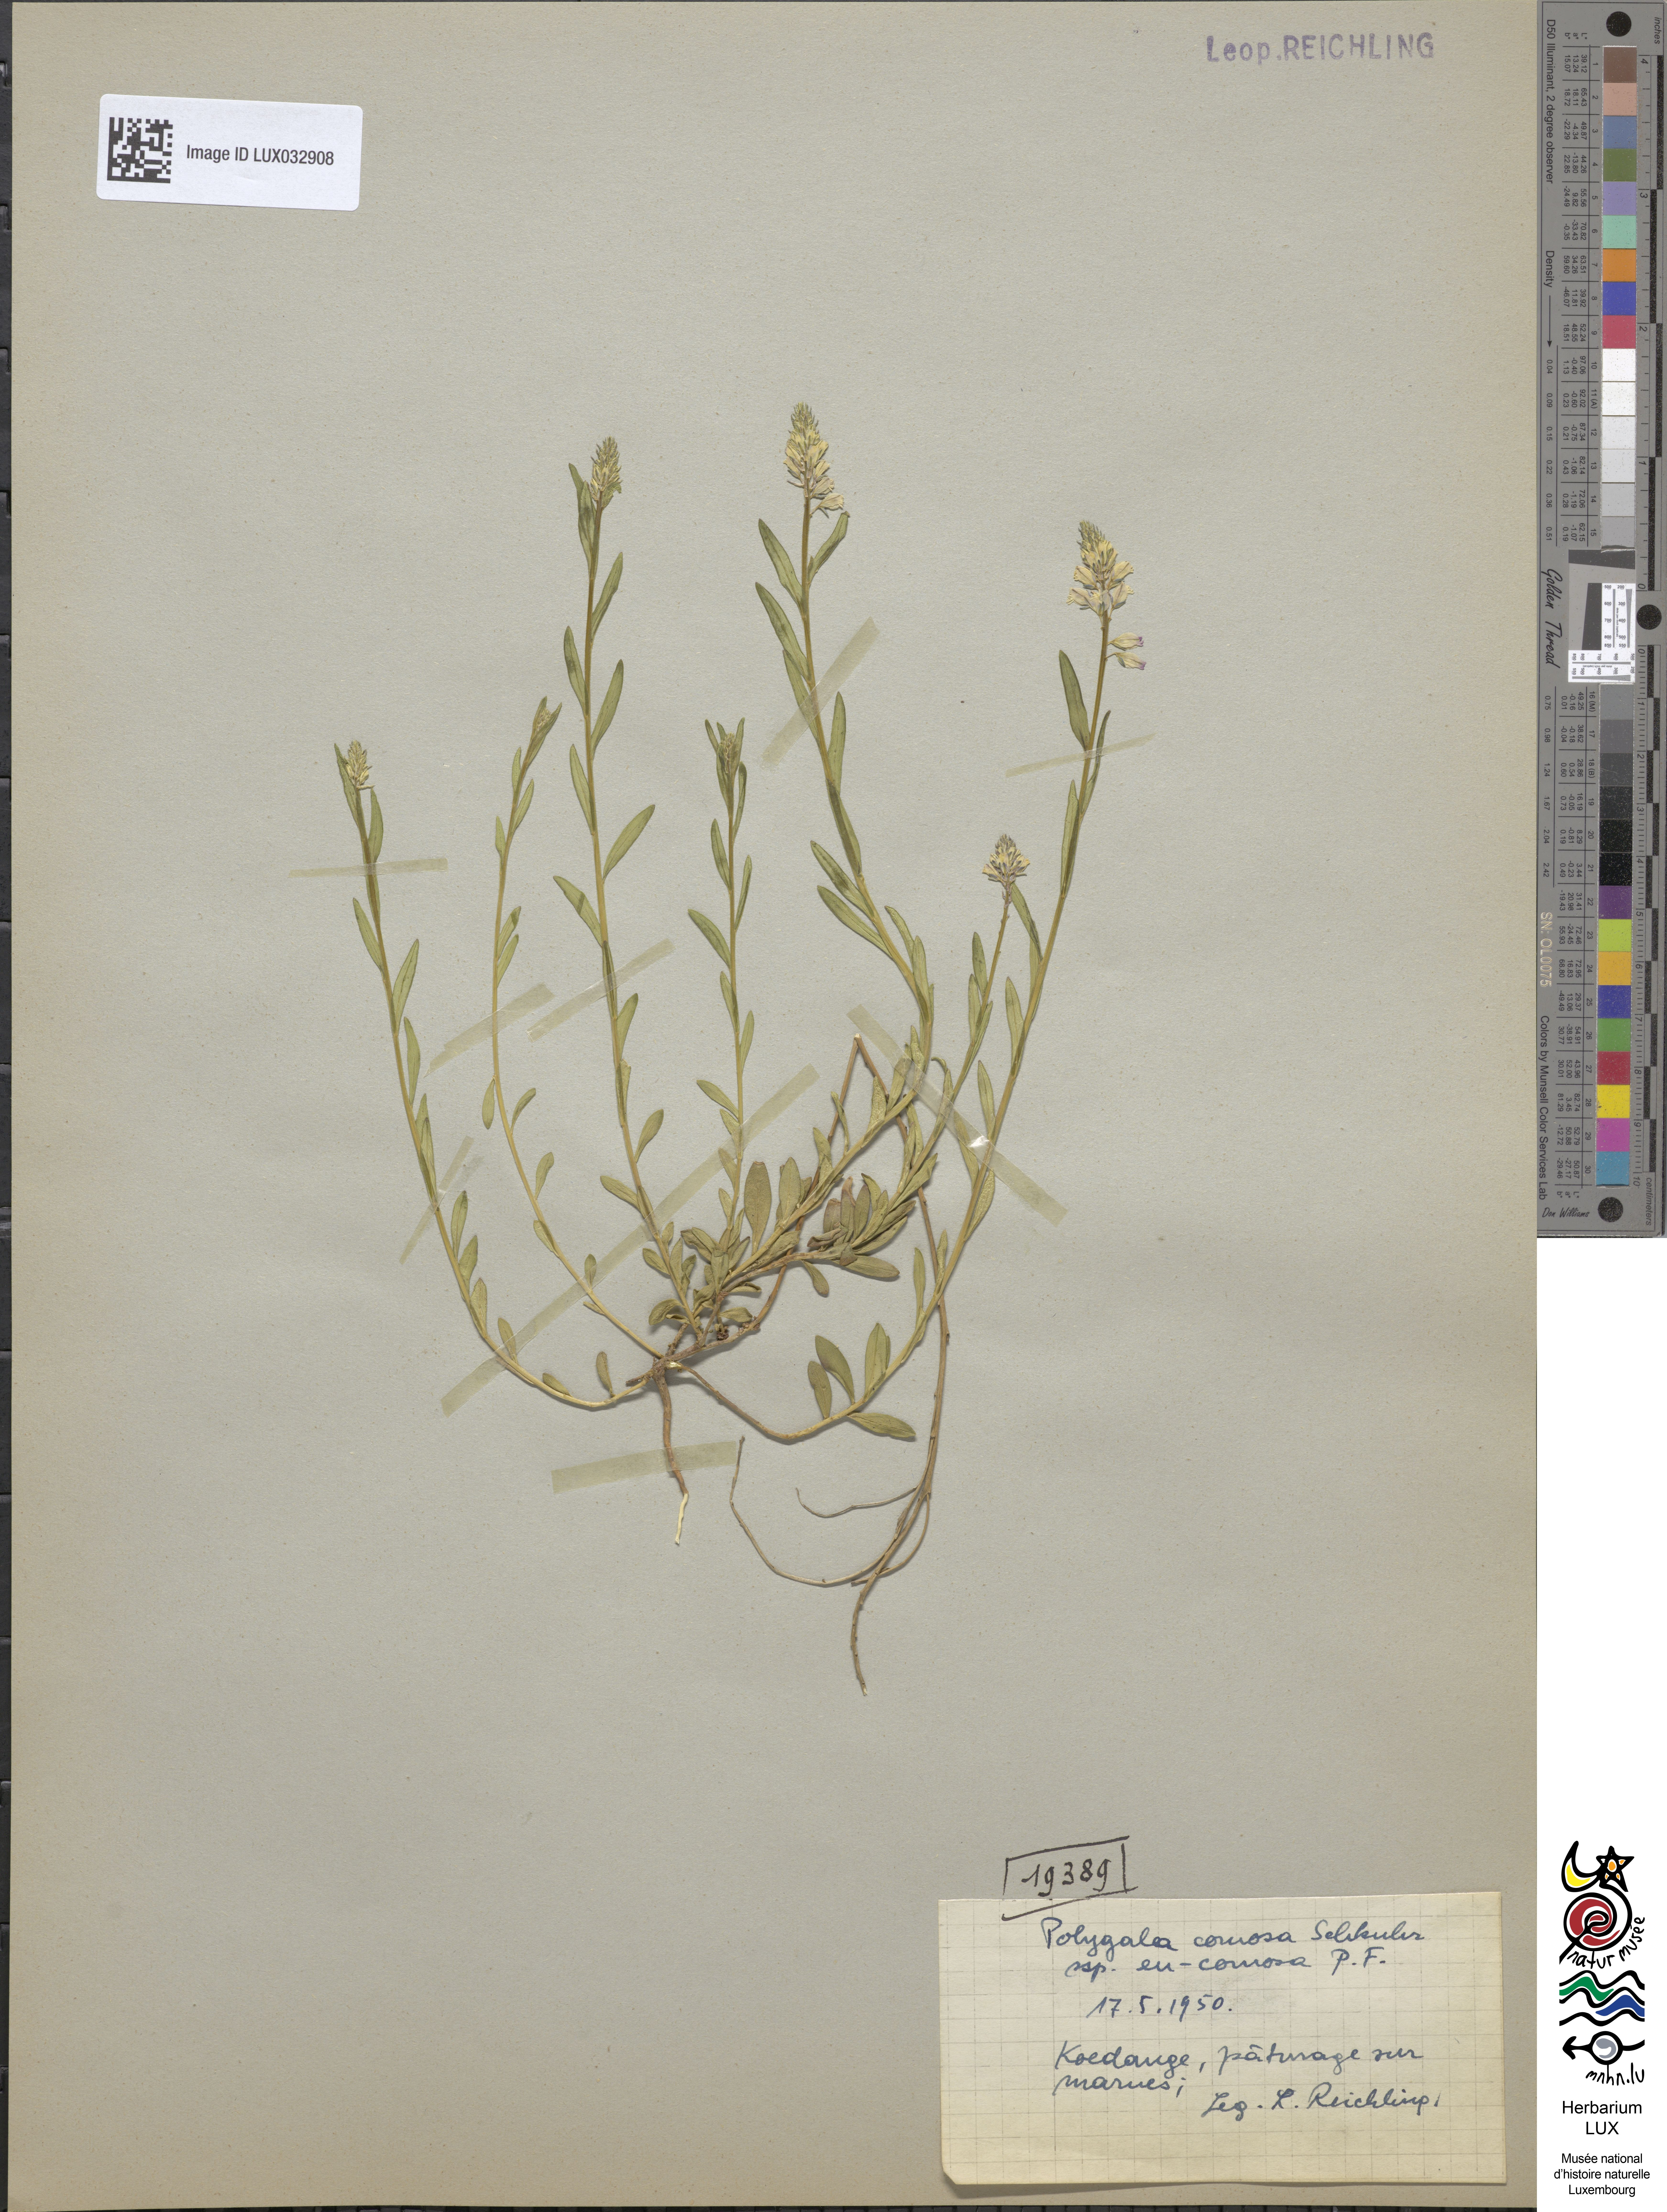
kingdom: Plantae
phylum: Tracheophyta
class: Magnoliopsida
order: Fabales
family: Polygalaceae
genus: Polygala
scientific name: Polygala comosa
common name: Tufted milkwort
